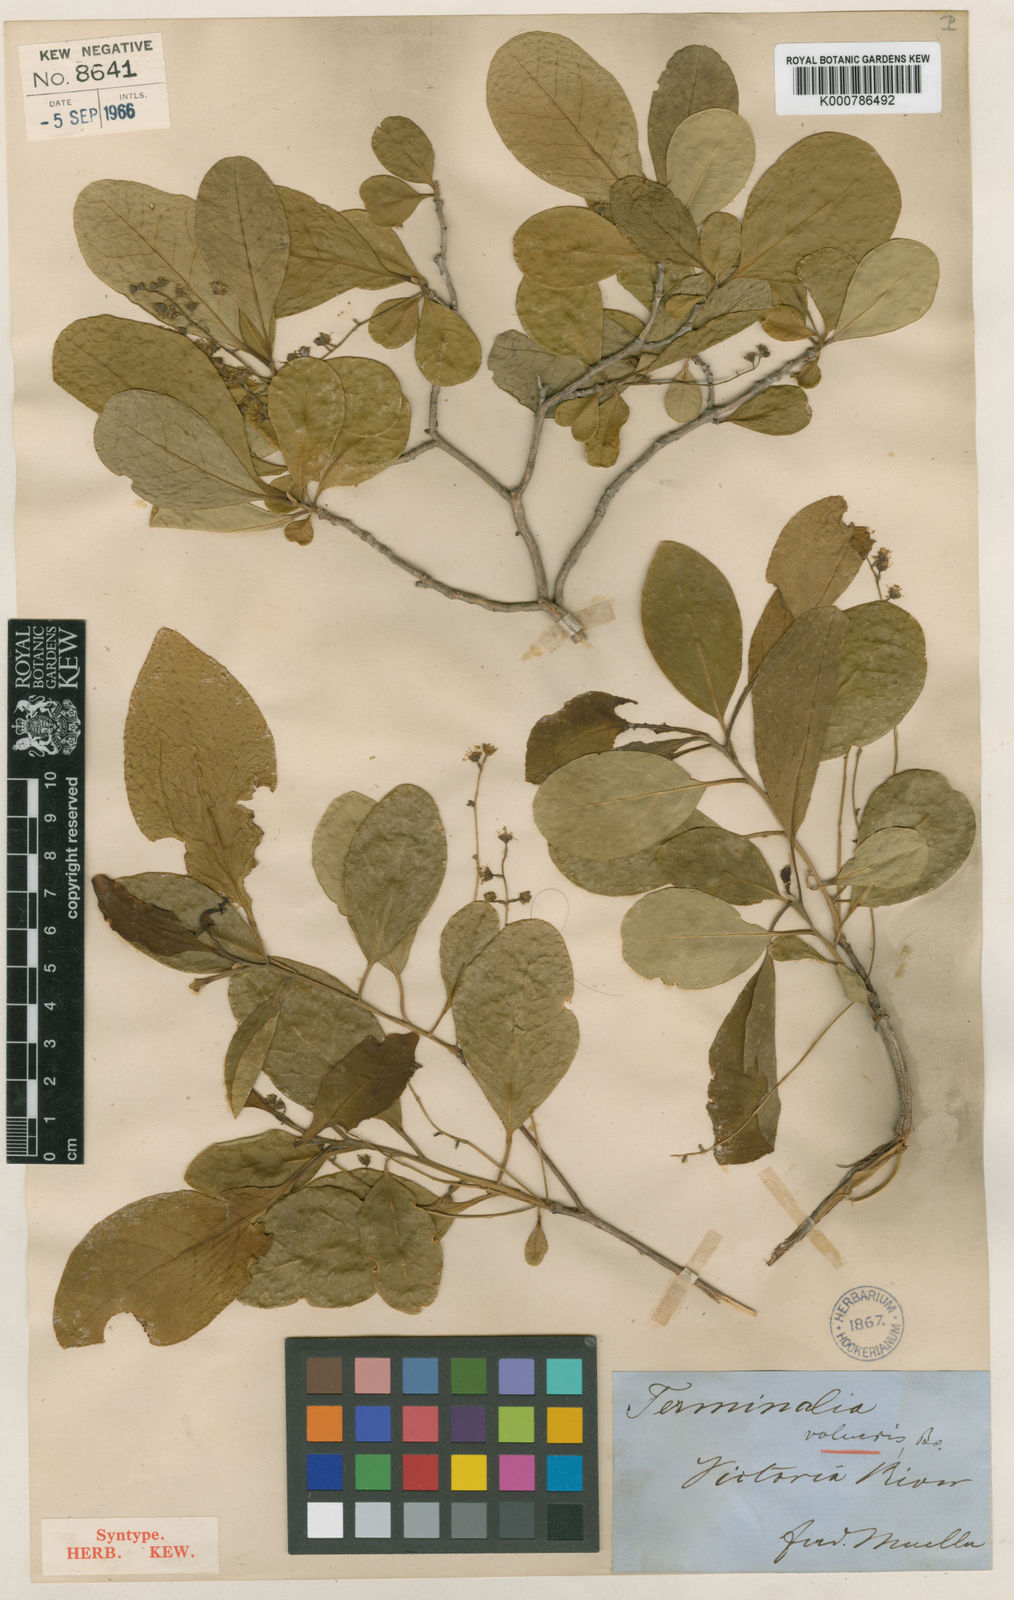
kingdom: Plantae
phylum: Tracheophyta
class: Magnoliopsida
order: Myrtales
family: Combretaceae
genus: Terminalia
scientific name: Terminalia volucris
